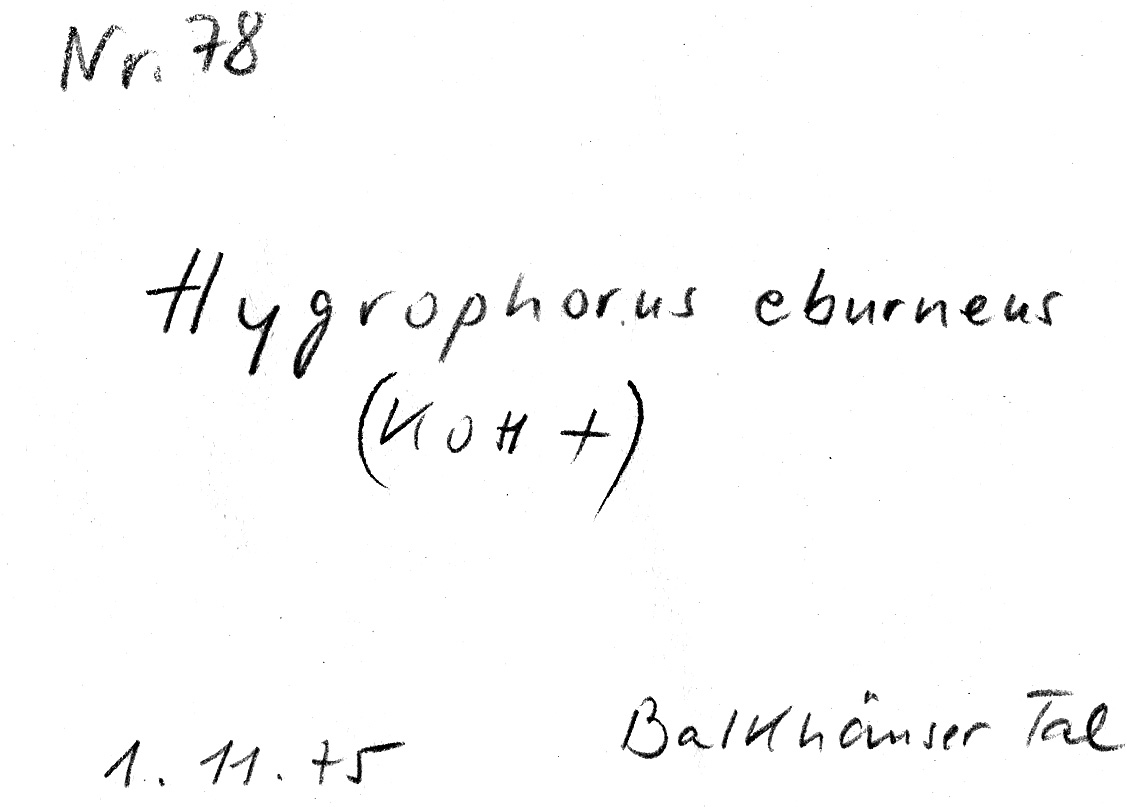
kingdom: Fungi
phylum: Basidiomycota
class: Agaricomycetes
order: Agaricales
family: Hygrophoraceae
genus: Hygrophorus
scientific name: Hygrophorus eburneus
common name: Ivory wax-cap
